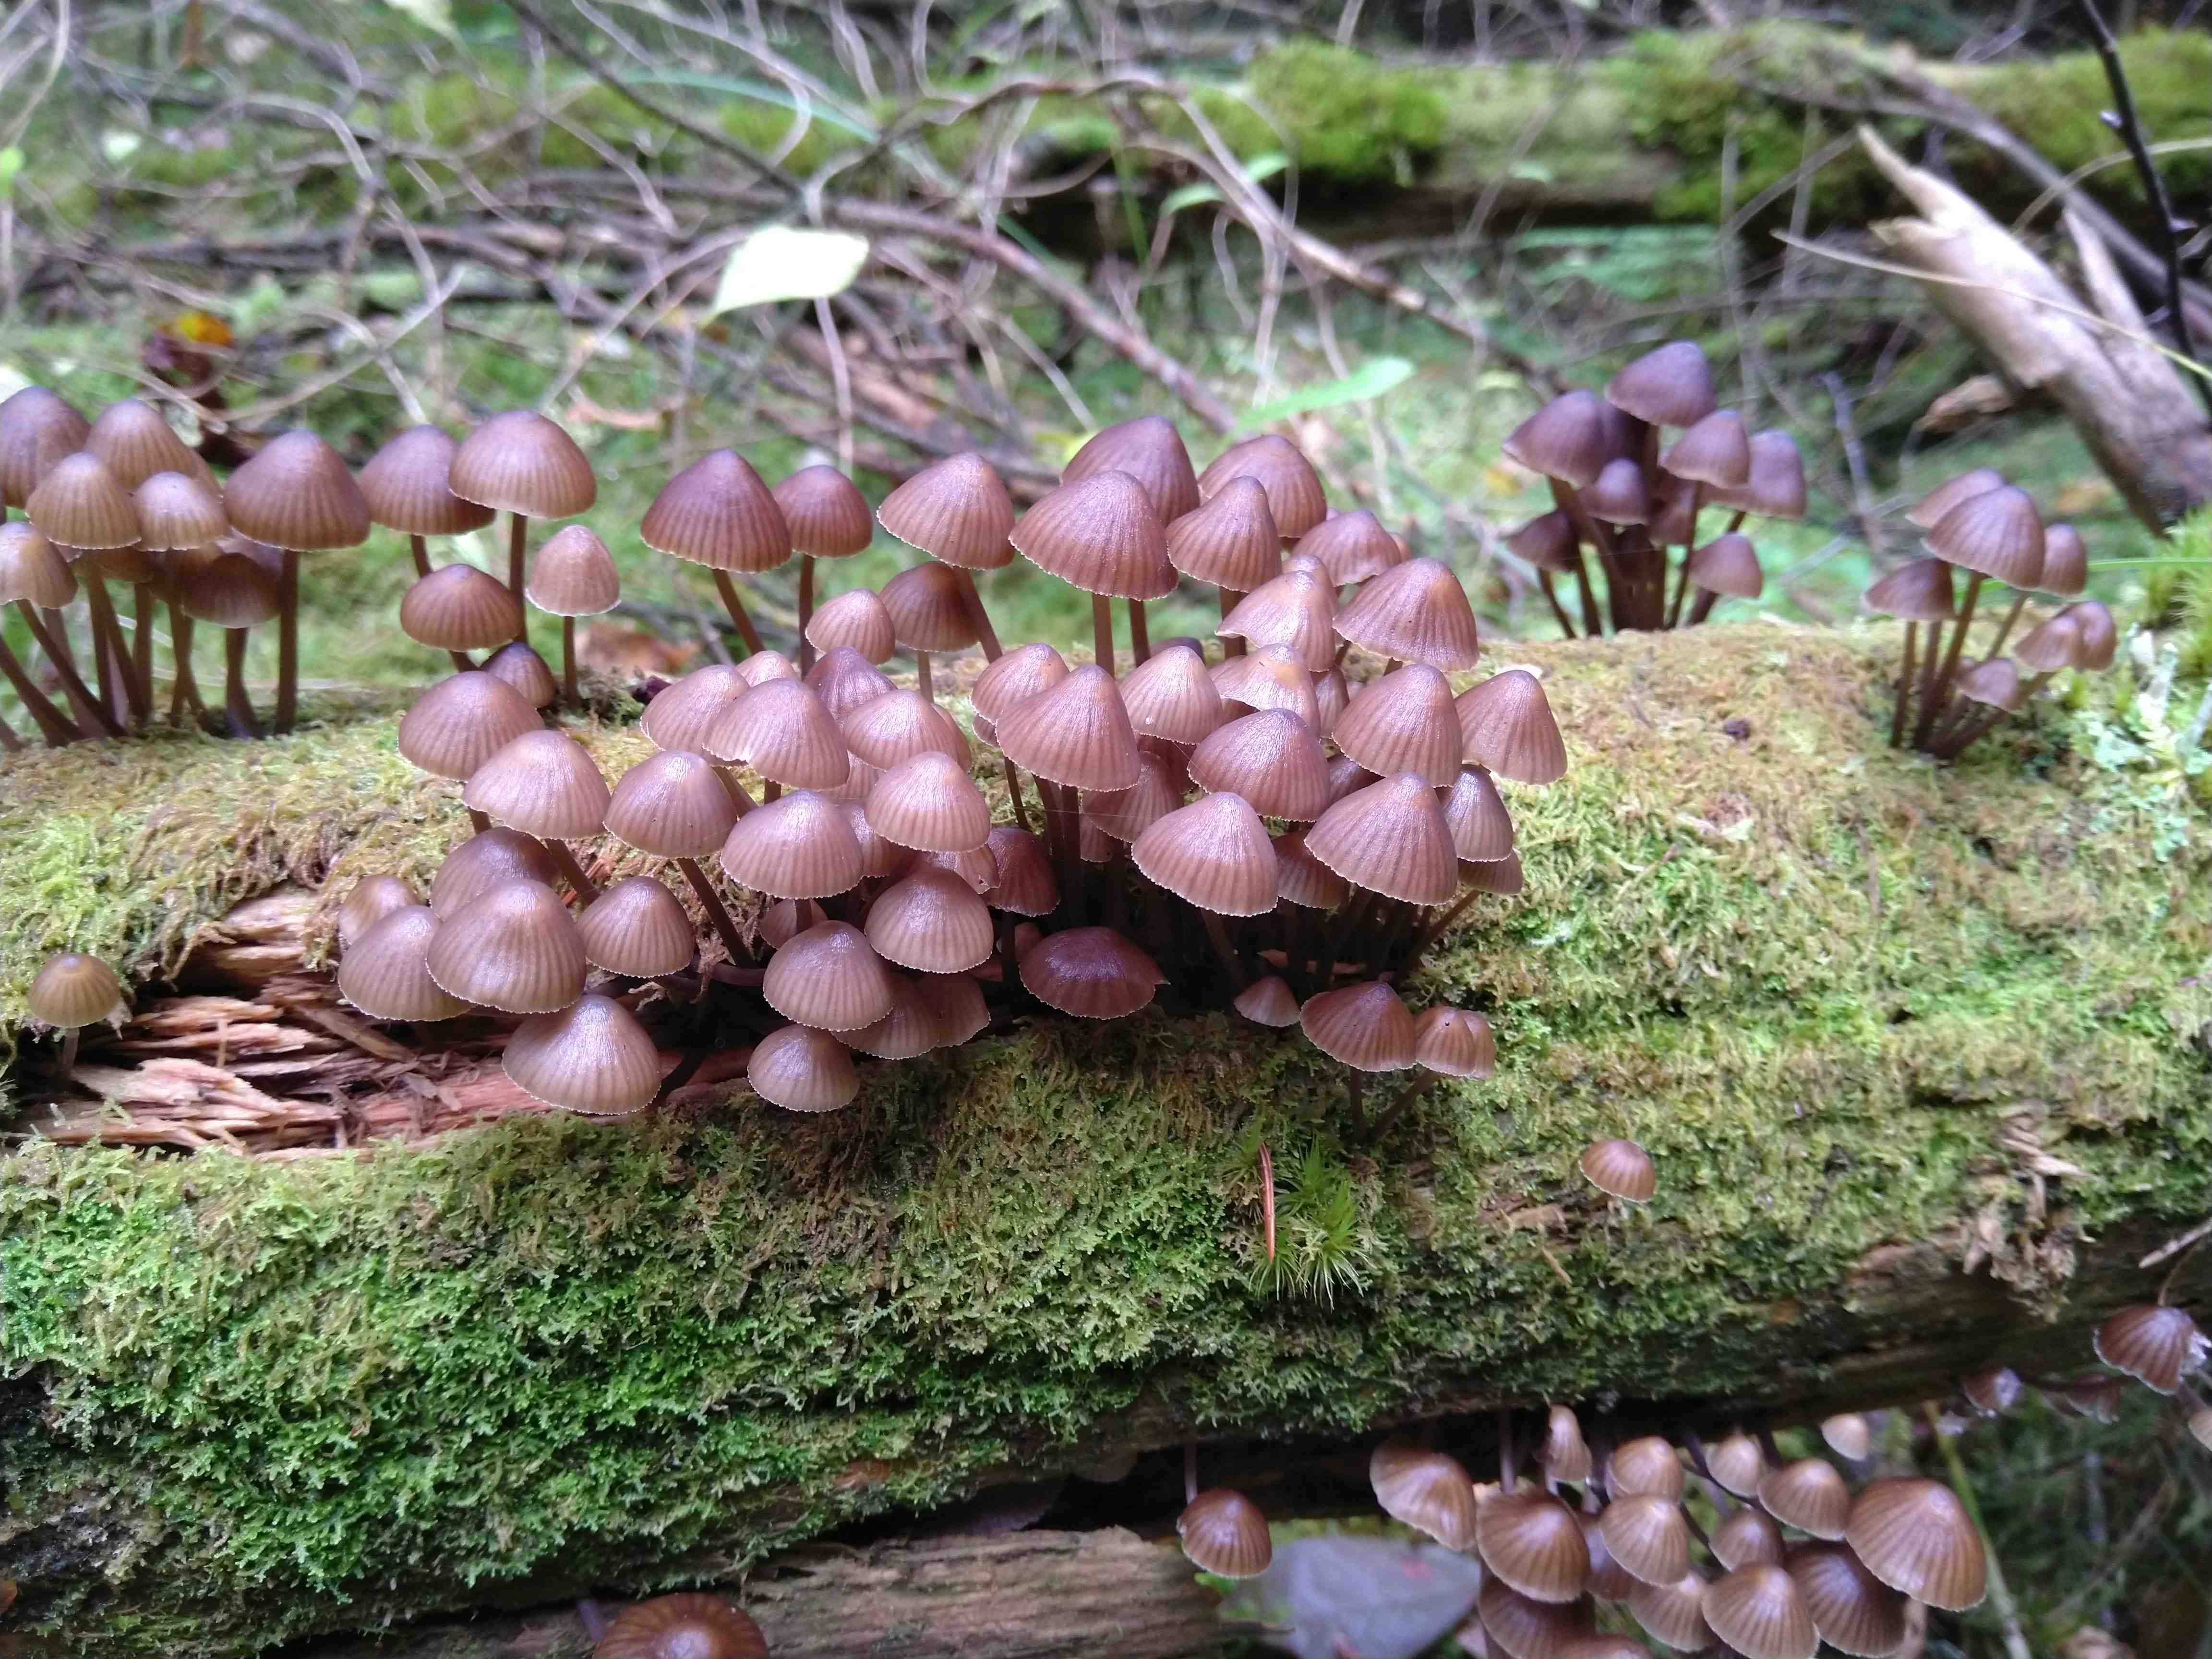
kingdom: Fungi
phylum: Basidiomycota
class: Agaricomycetes
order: Agaricales
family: Mycenaceae
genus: Mycena
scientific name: Mycena stipata
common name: stinkende huesvamp
